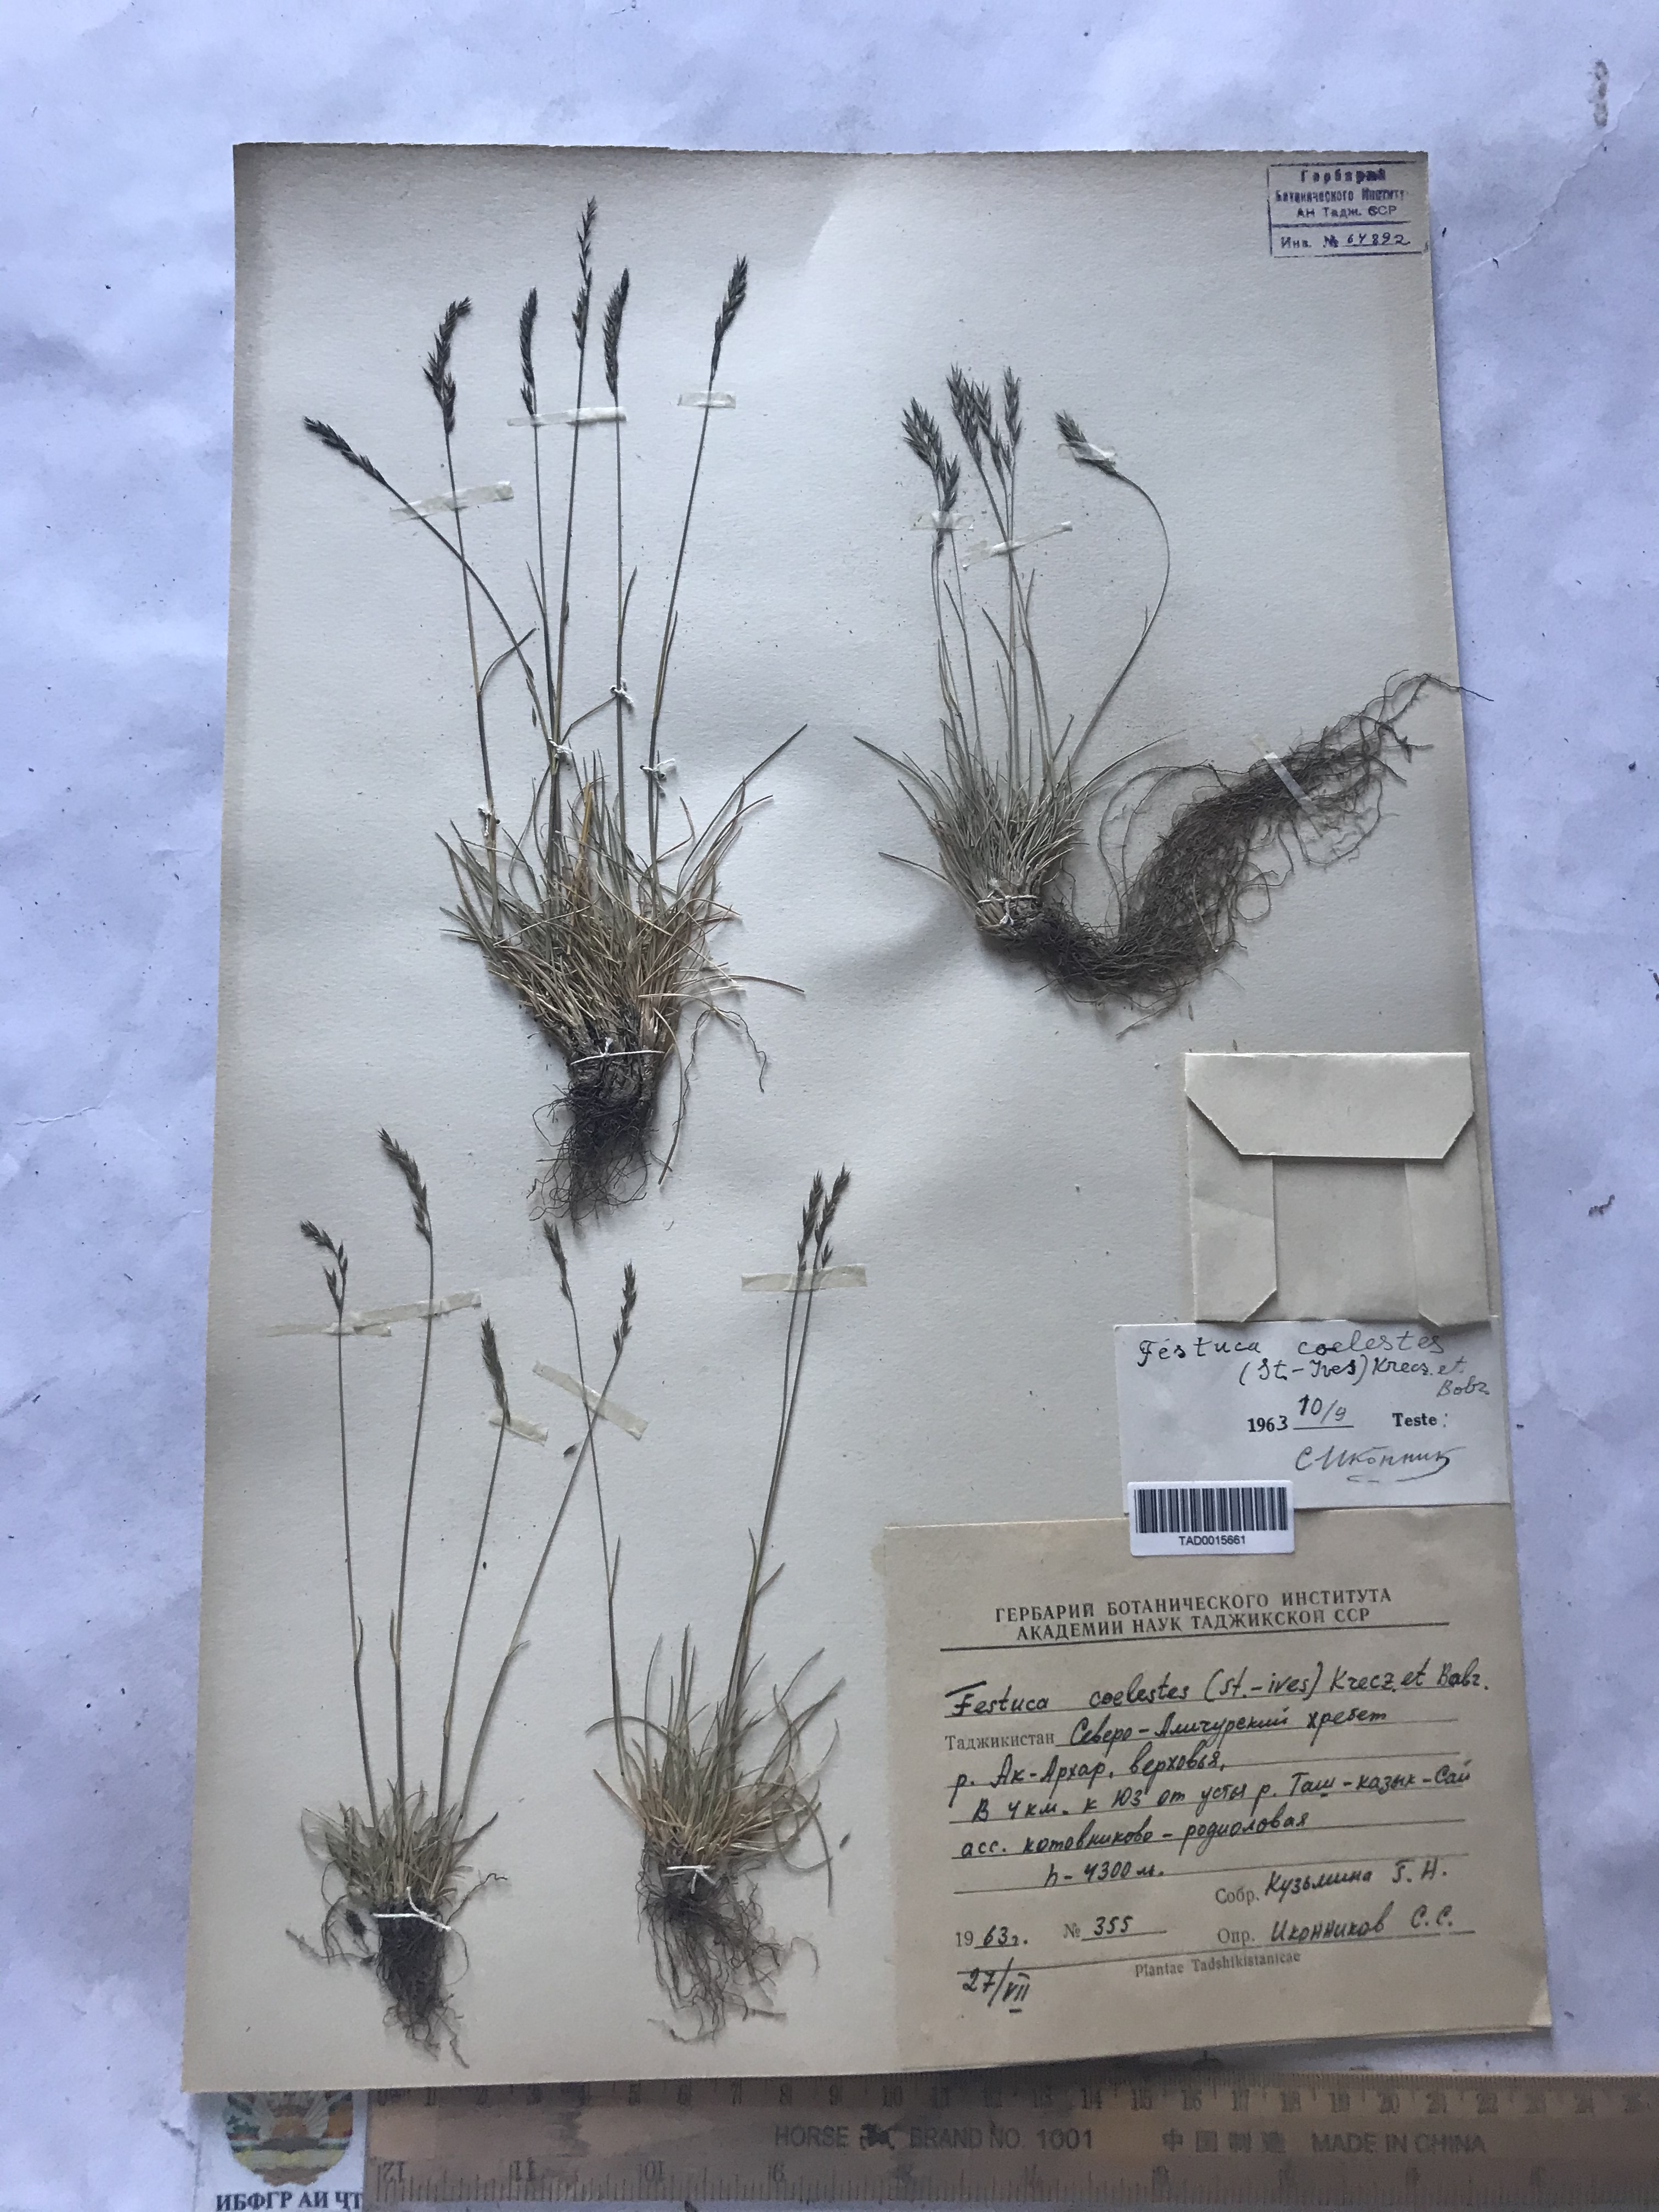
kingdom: Plantae
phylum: Tracheophyta
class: Liliopsida
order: Poales
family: Poaceae
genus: Festuca
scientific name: Festuca coelestis
